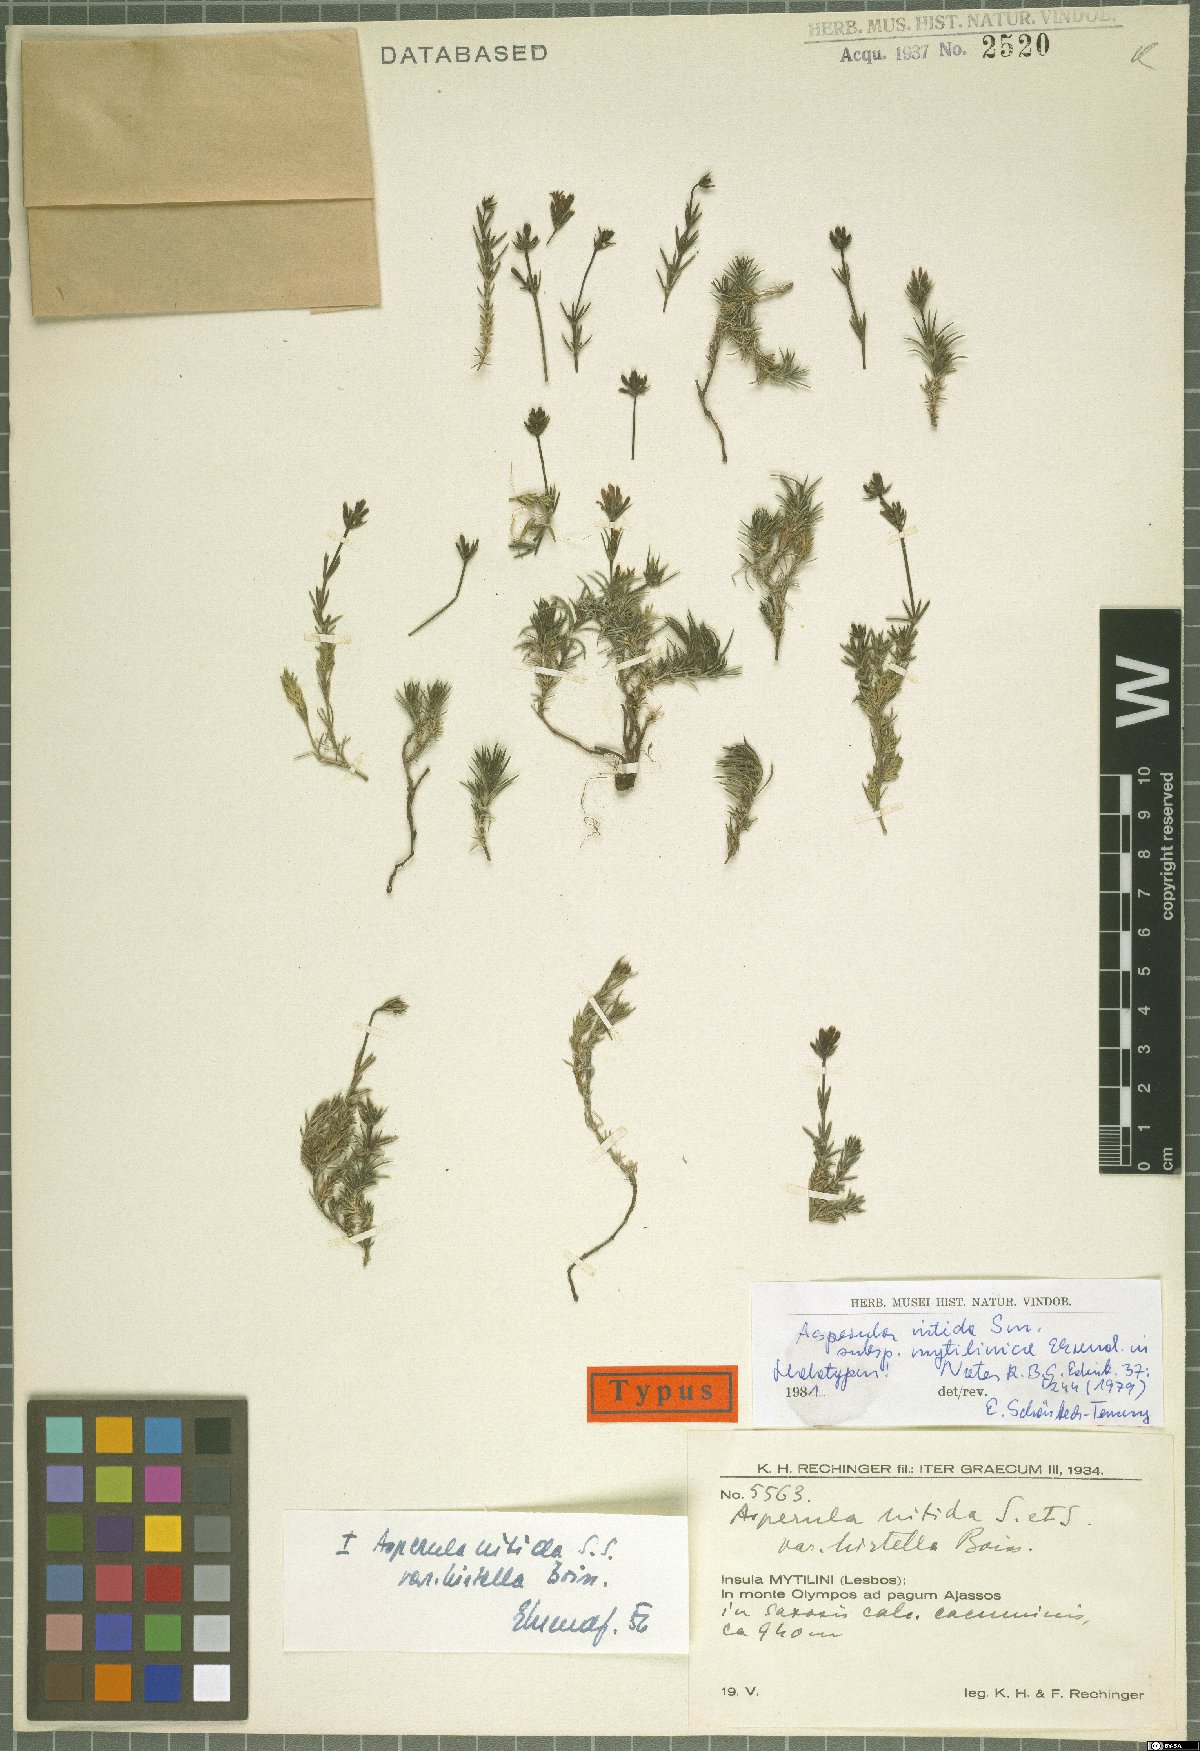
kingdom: Plantae
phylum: Tracheophyta
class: Magnoliopsida
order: Gentianales
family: Rubiaceae
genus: Cynanchica
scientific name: Cynanchica nitida
